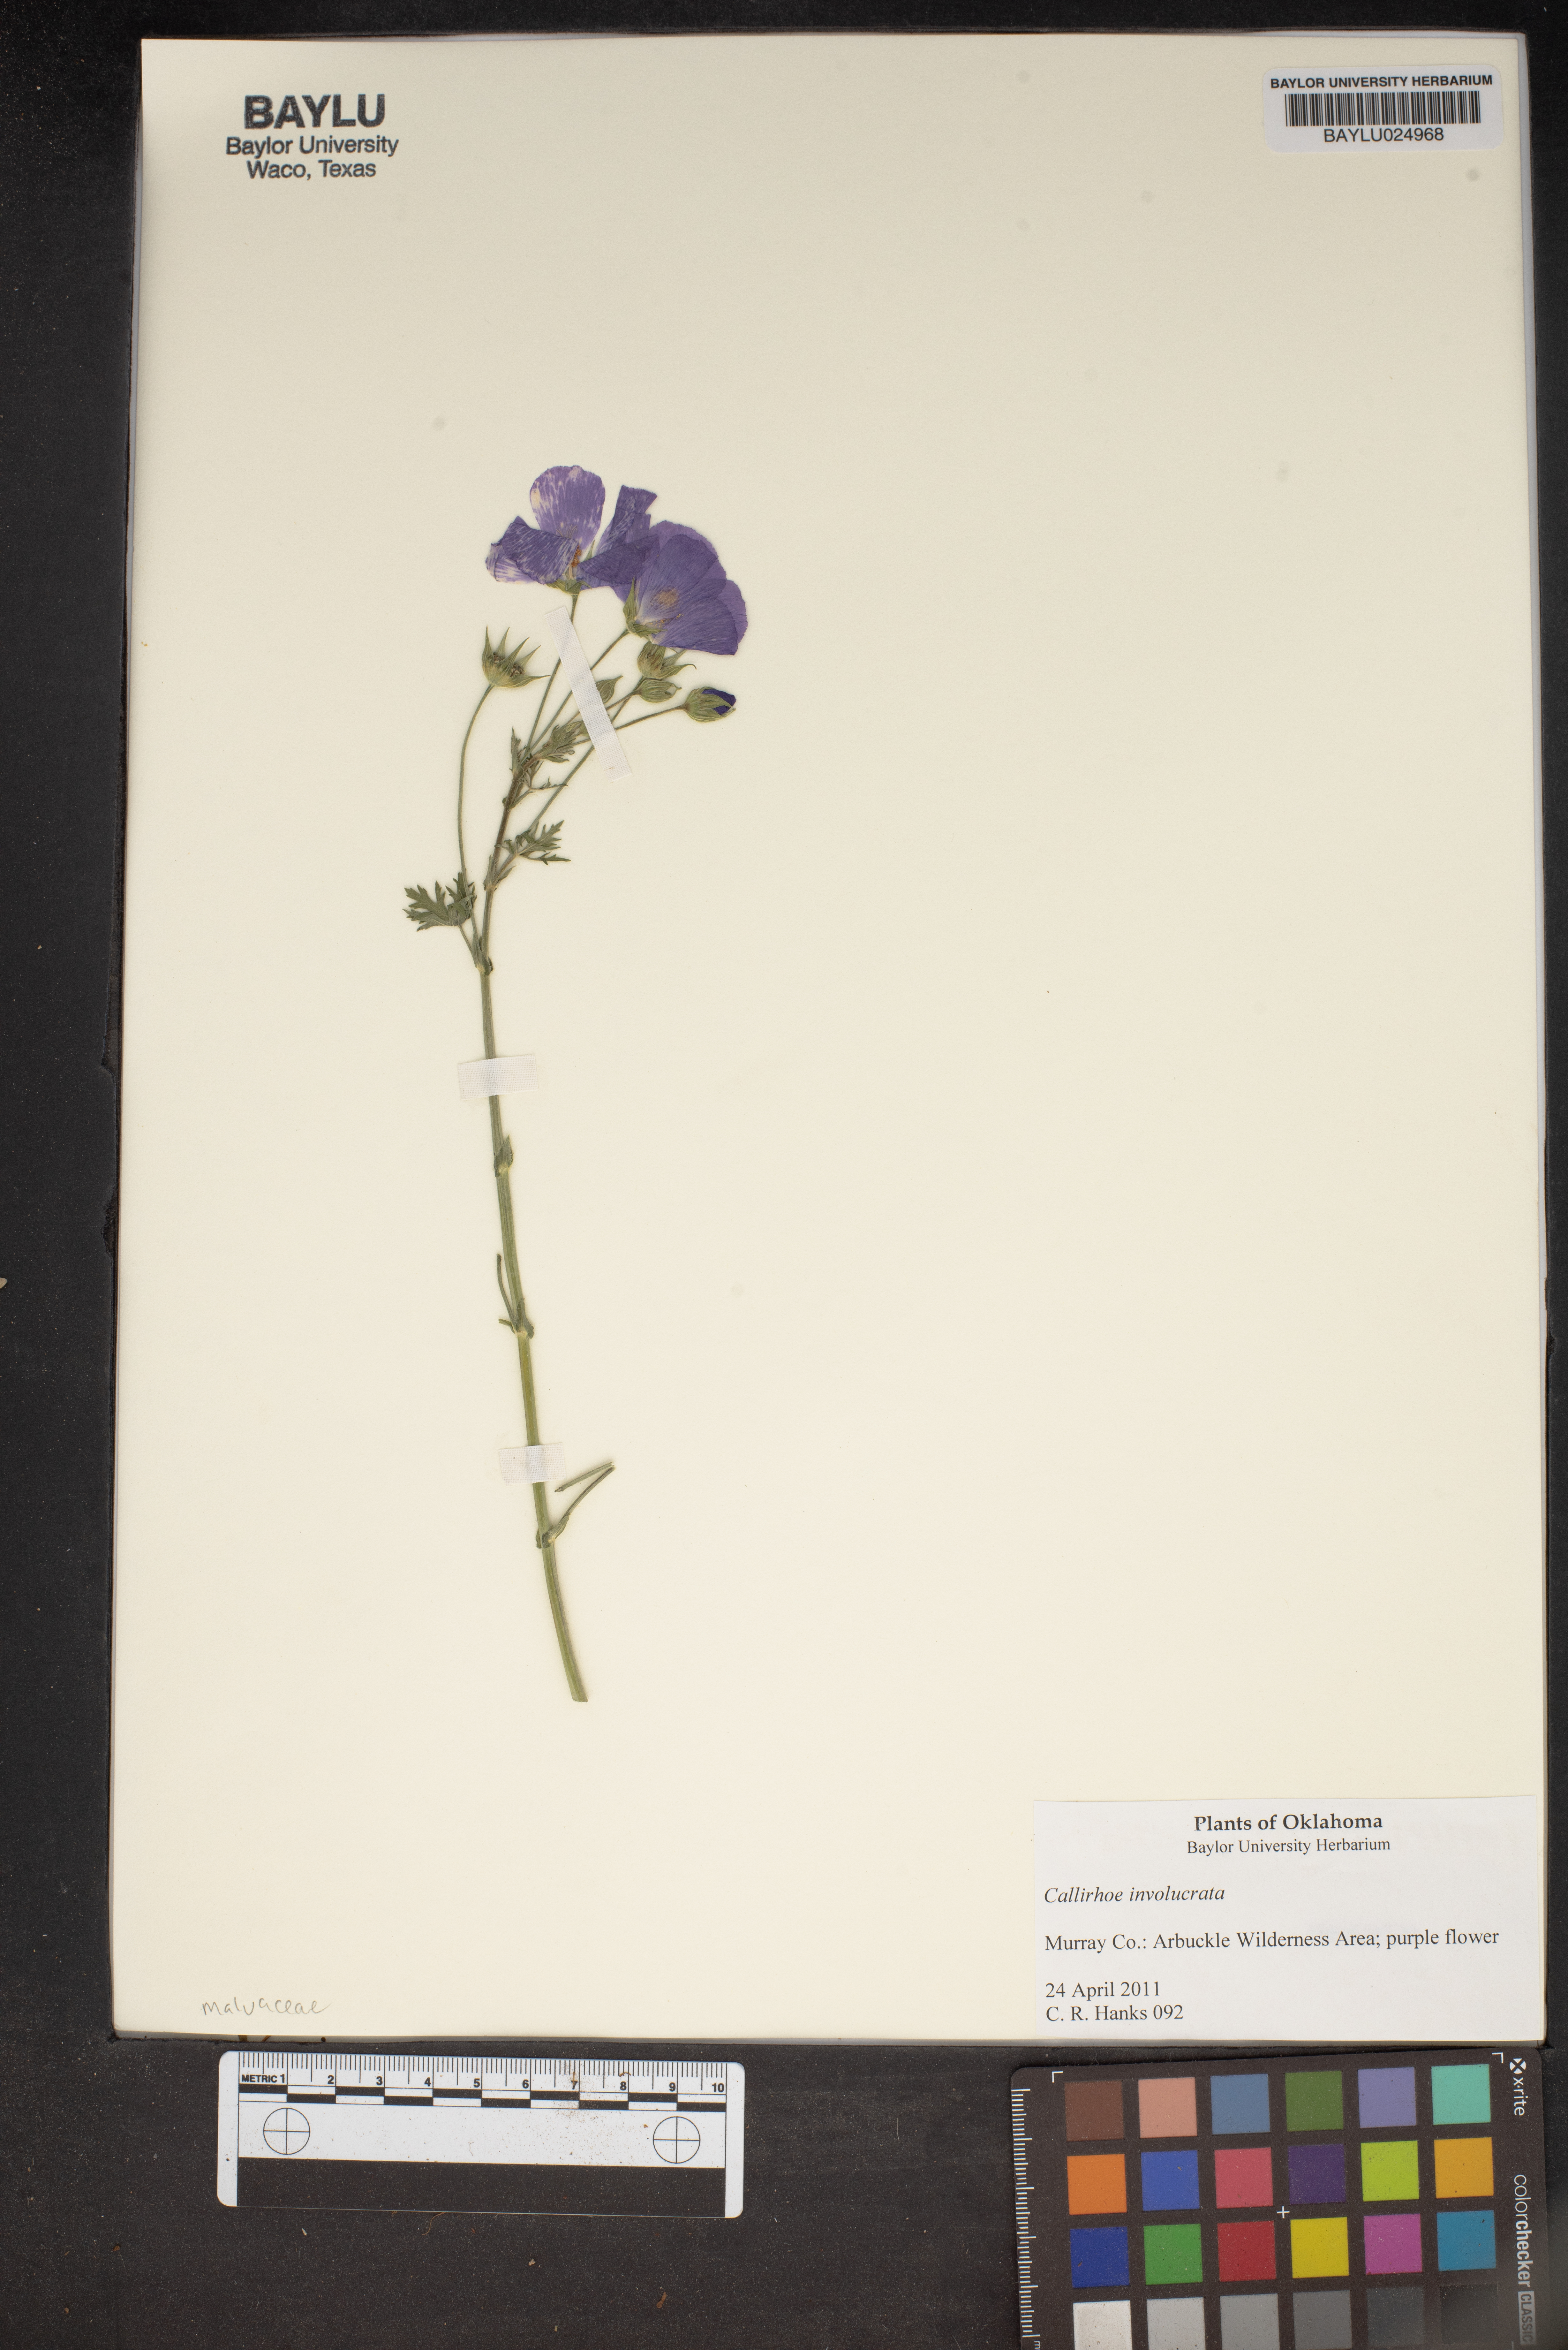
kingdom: Plantae
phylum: Tracheophyta
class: Magnoliopsida
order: Malvales
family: Malvaceae
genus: Callirhoe
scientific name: Callirhoe involucrata
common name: Purple poppy-mallow
